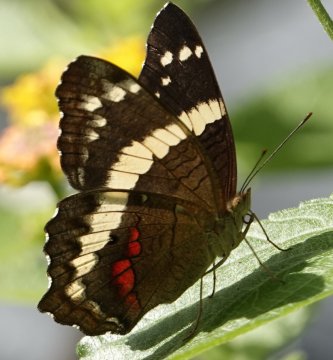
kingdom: Animalia
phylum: Arthropoda
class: Insecta
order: Lepidoptera
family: Nymphalidae
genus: Anartia
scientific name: Anartia fatima
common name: Banded Peacock
